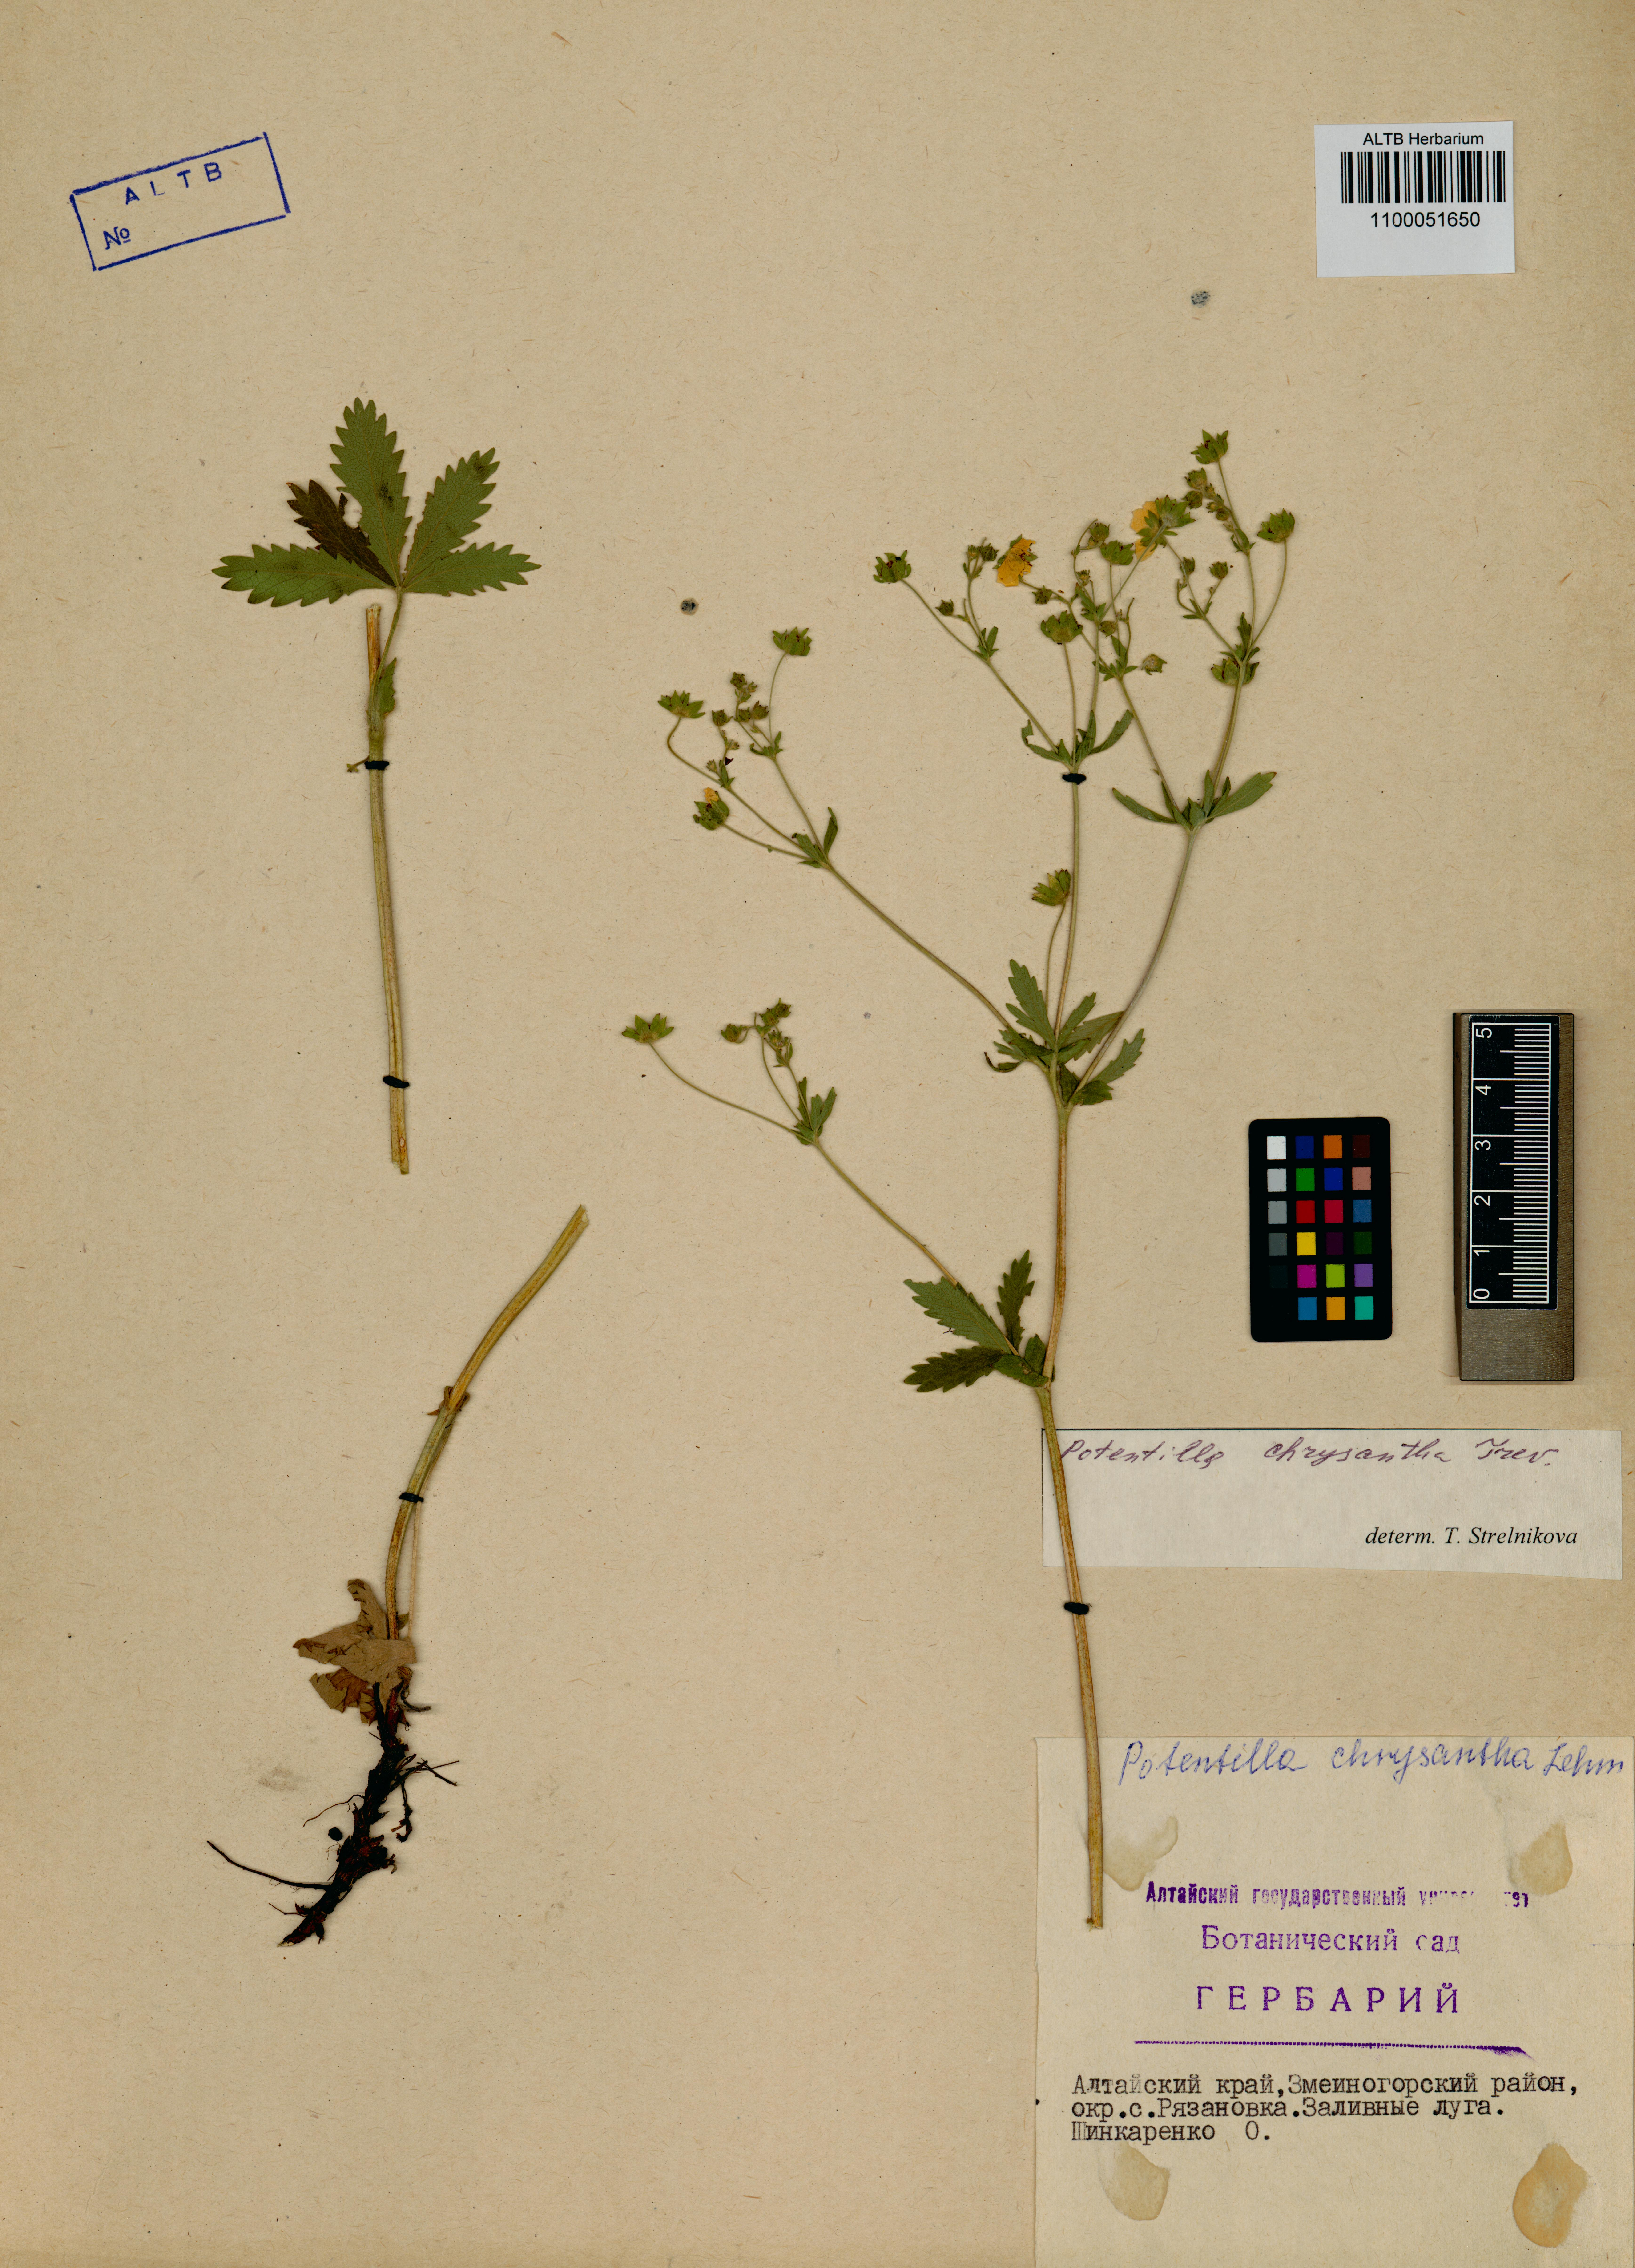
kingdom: Plantae
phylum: Tracheophyta
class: Magnoliopsida
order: Rosales
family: Rosaceae
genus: Potentilla
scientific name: Potentilla chrysantha
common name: Thuringian cinquefoil
